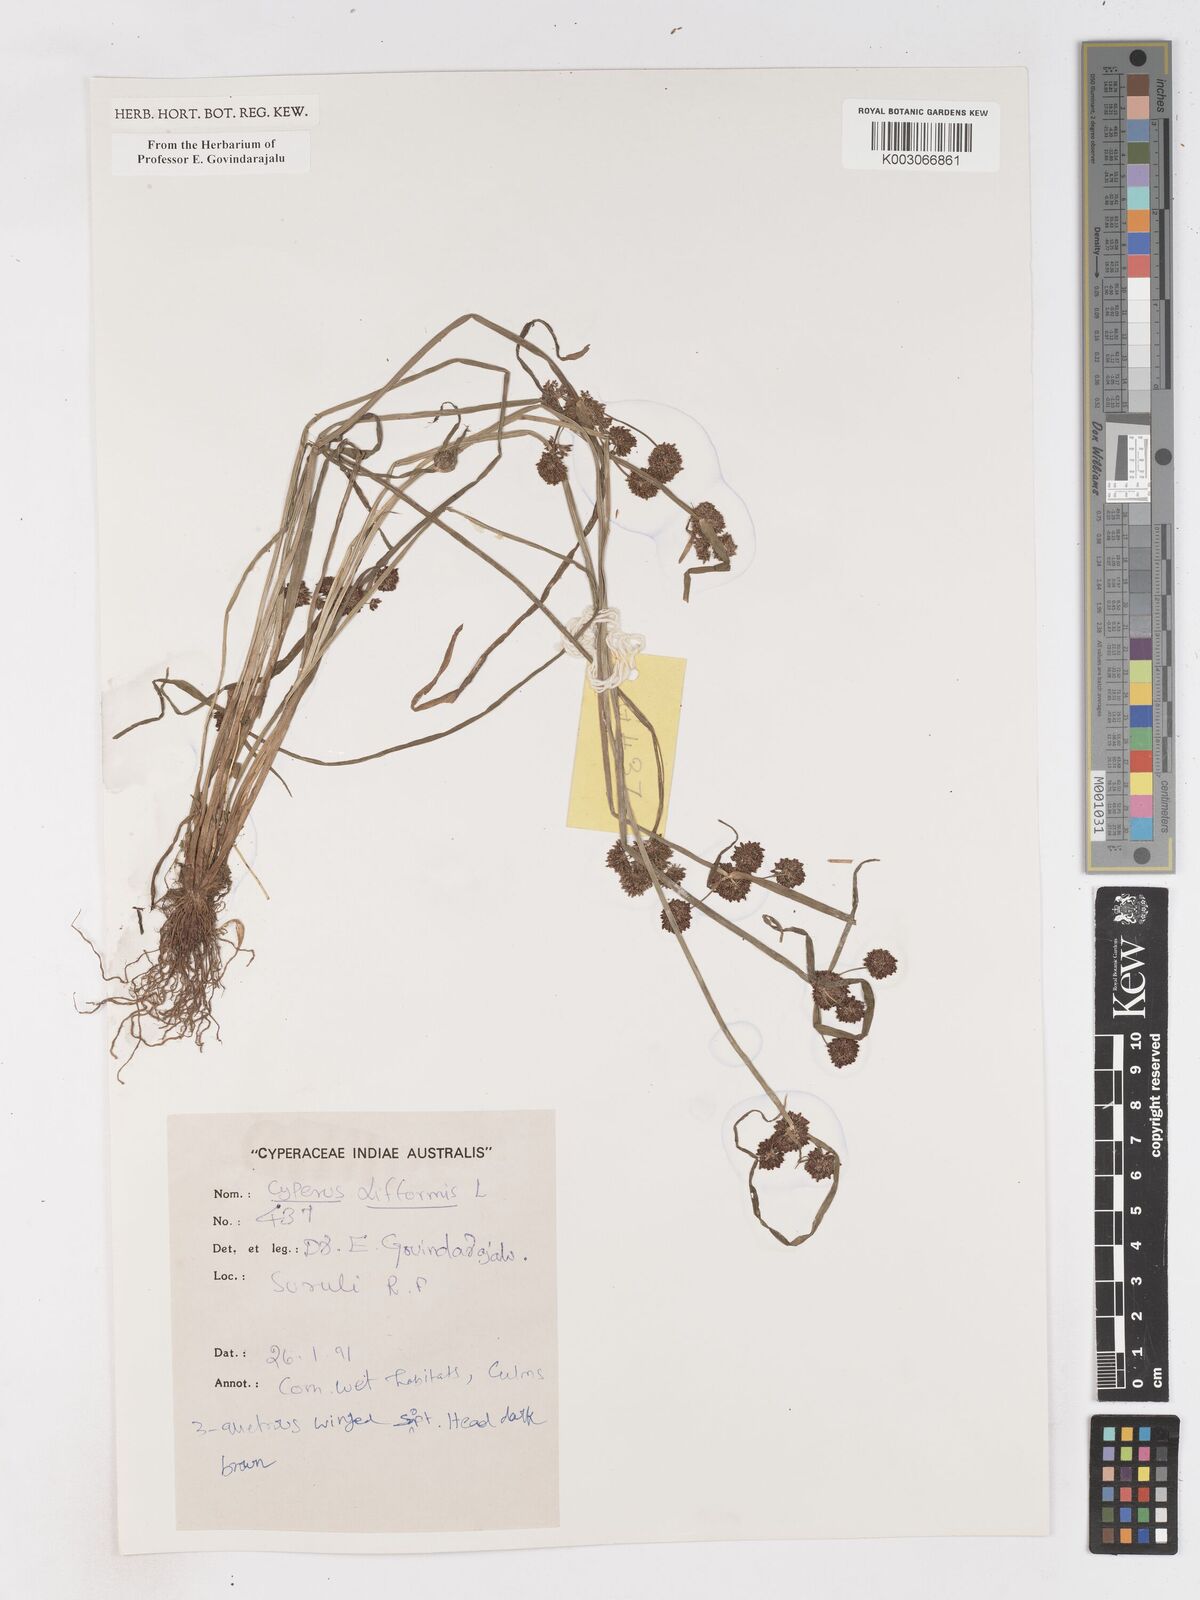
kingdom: Plantae
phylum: Tracheophyta
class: Liliopsida
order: Poales
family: Cyperaceae
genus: Cyperus
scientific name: Cyperus difformis
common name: Variable flatsedge
